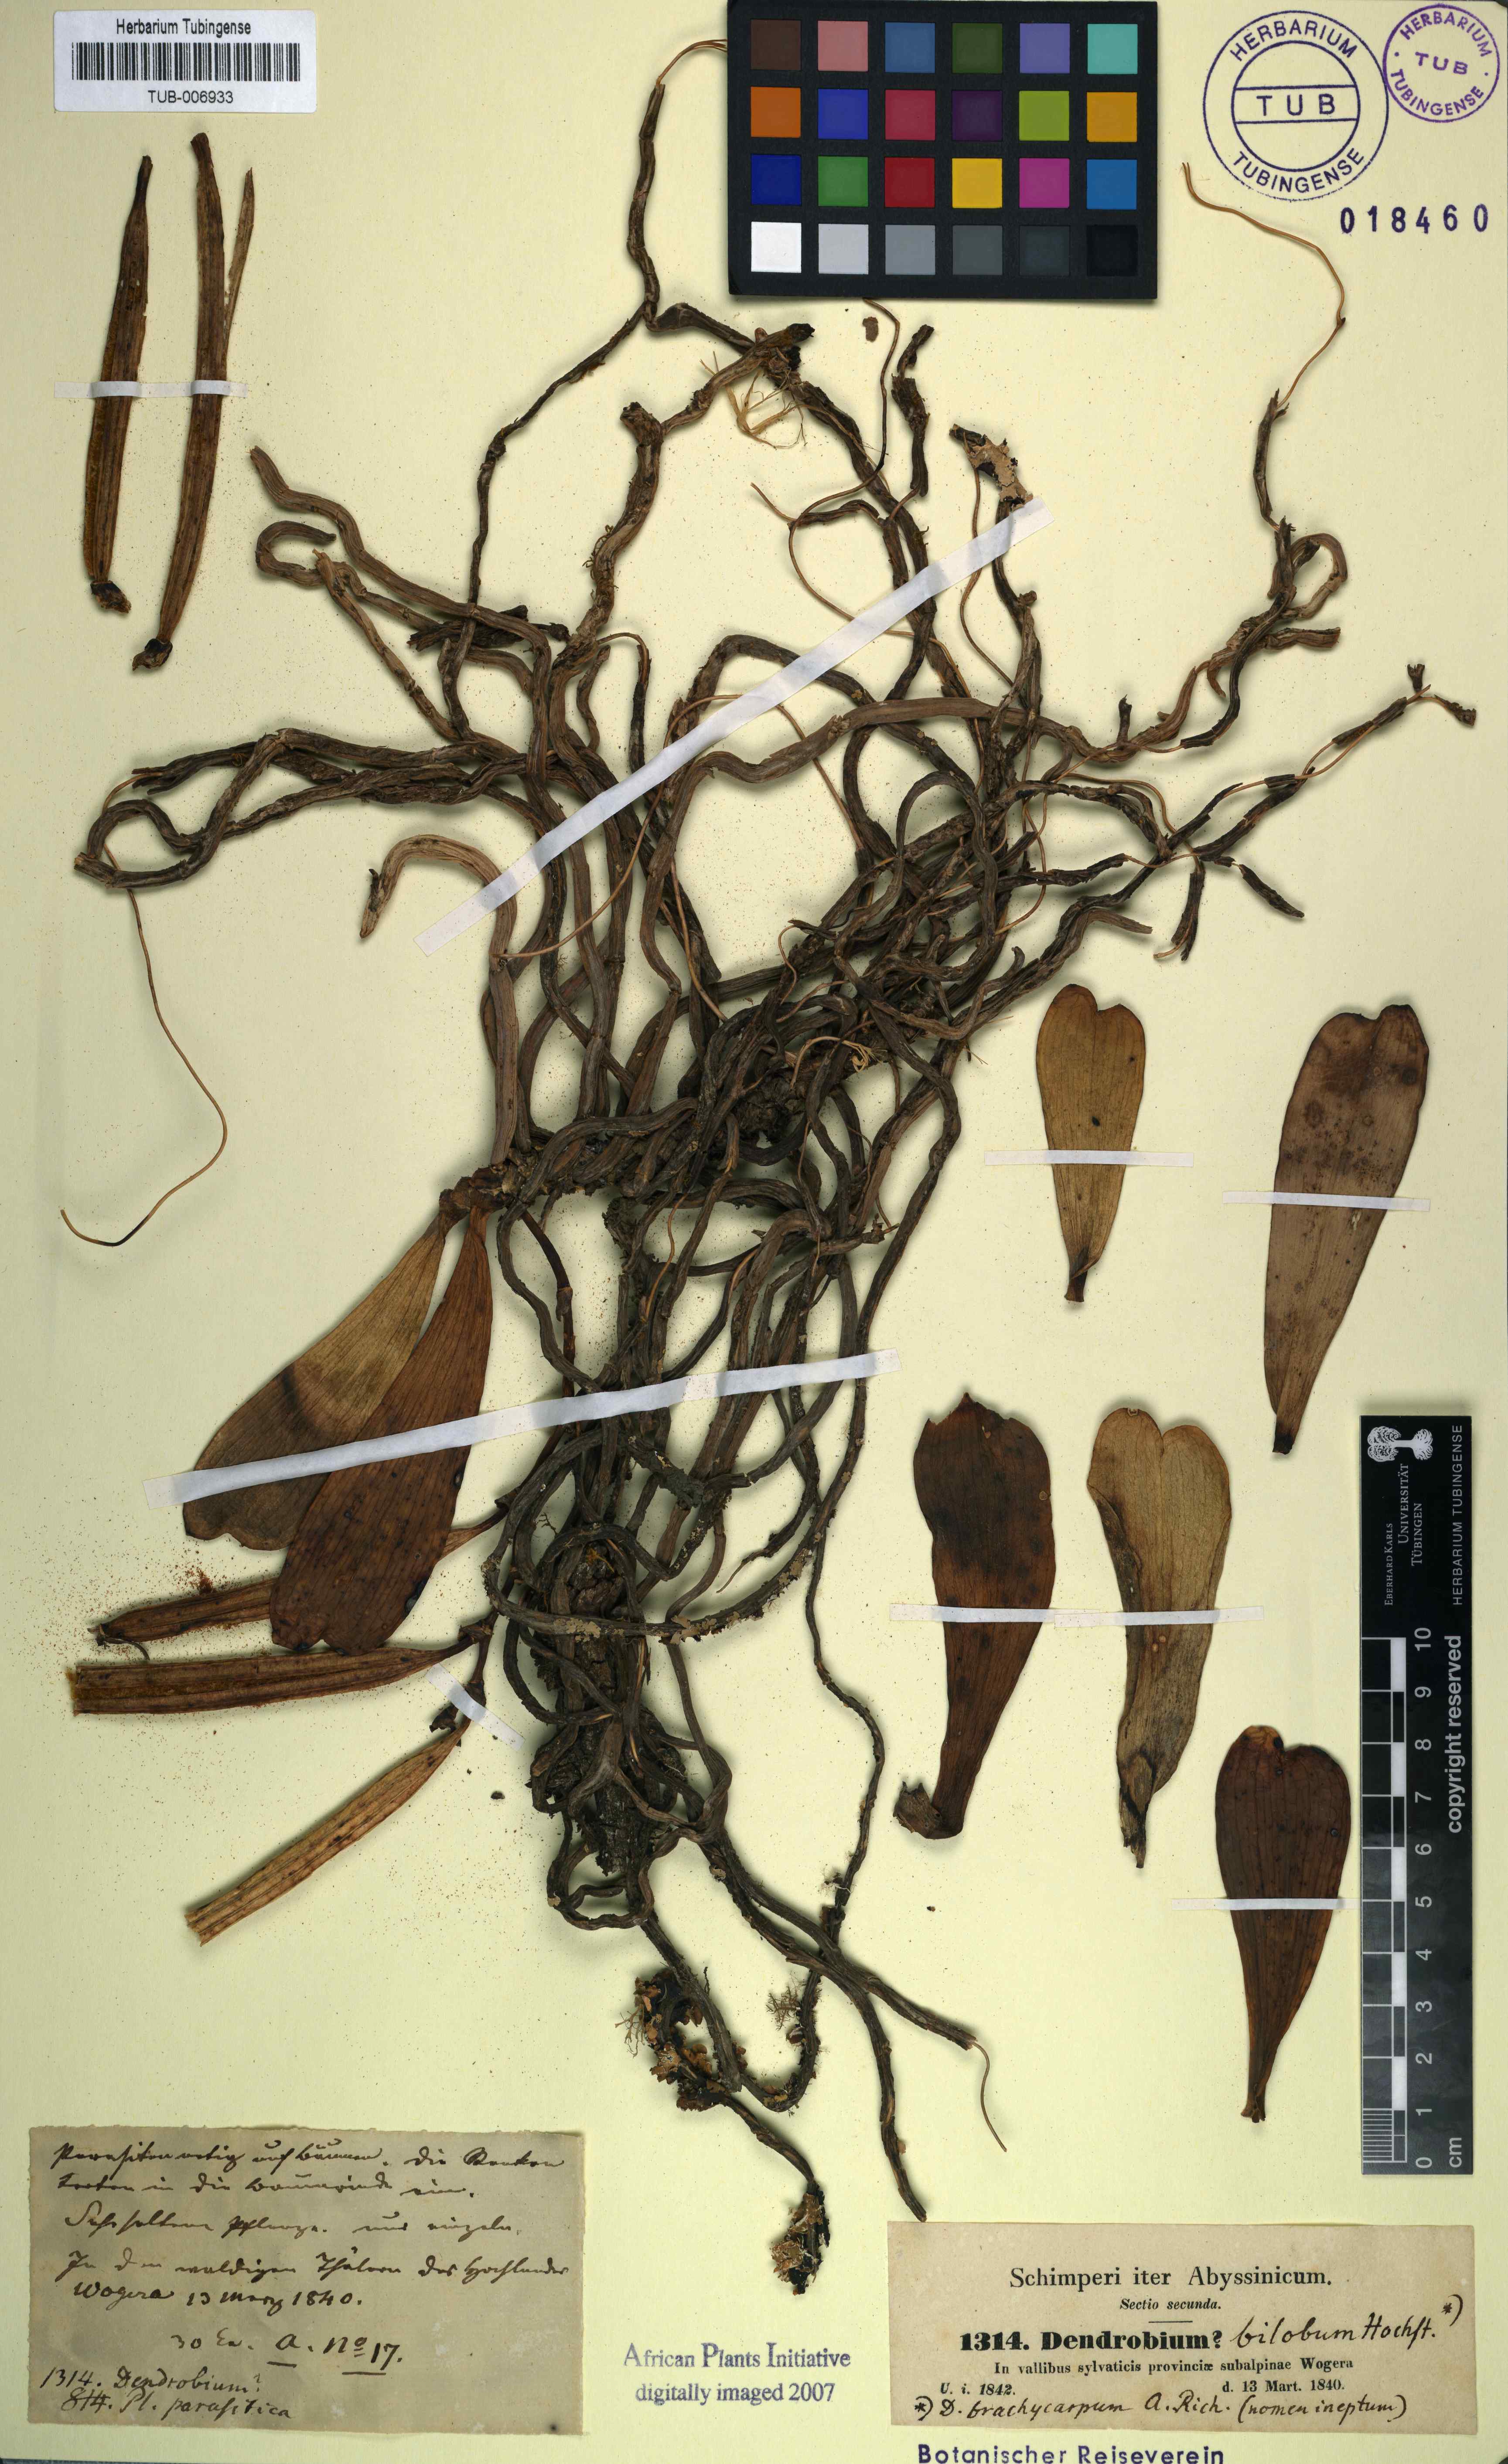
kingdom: Plantae
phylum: Tracheophyta
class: Liliopsida
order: Asparagales
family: Orchidaceae
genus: Dendrobium
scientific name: Dendrobium bilobum
